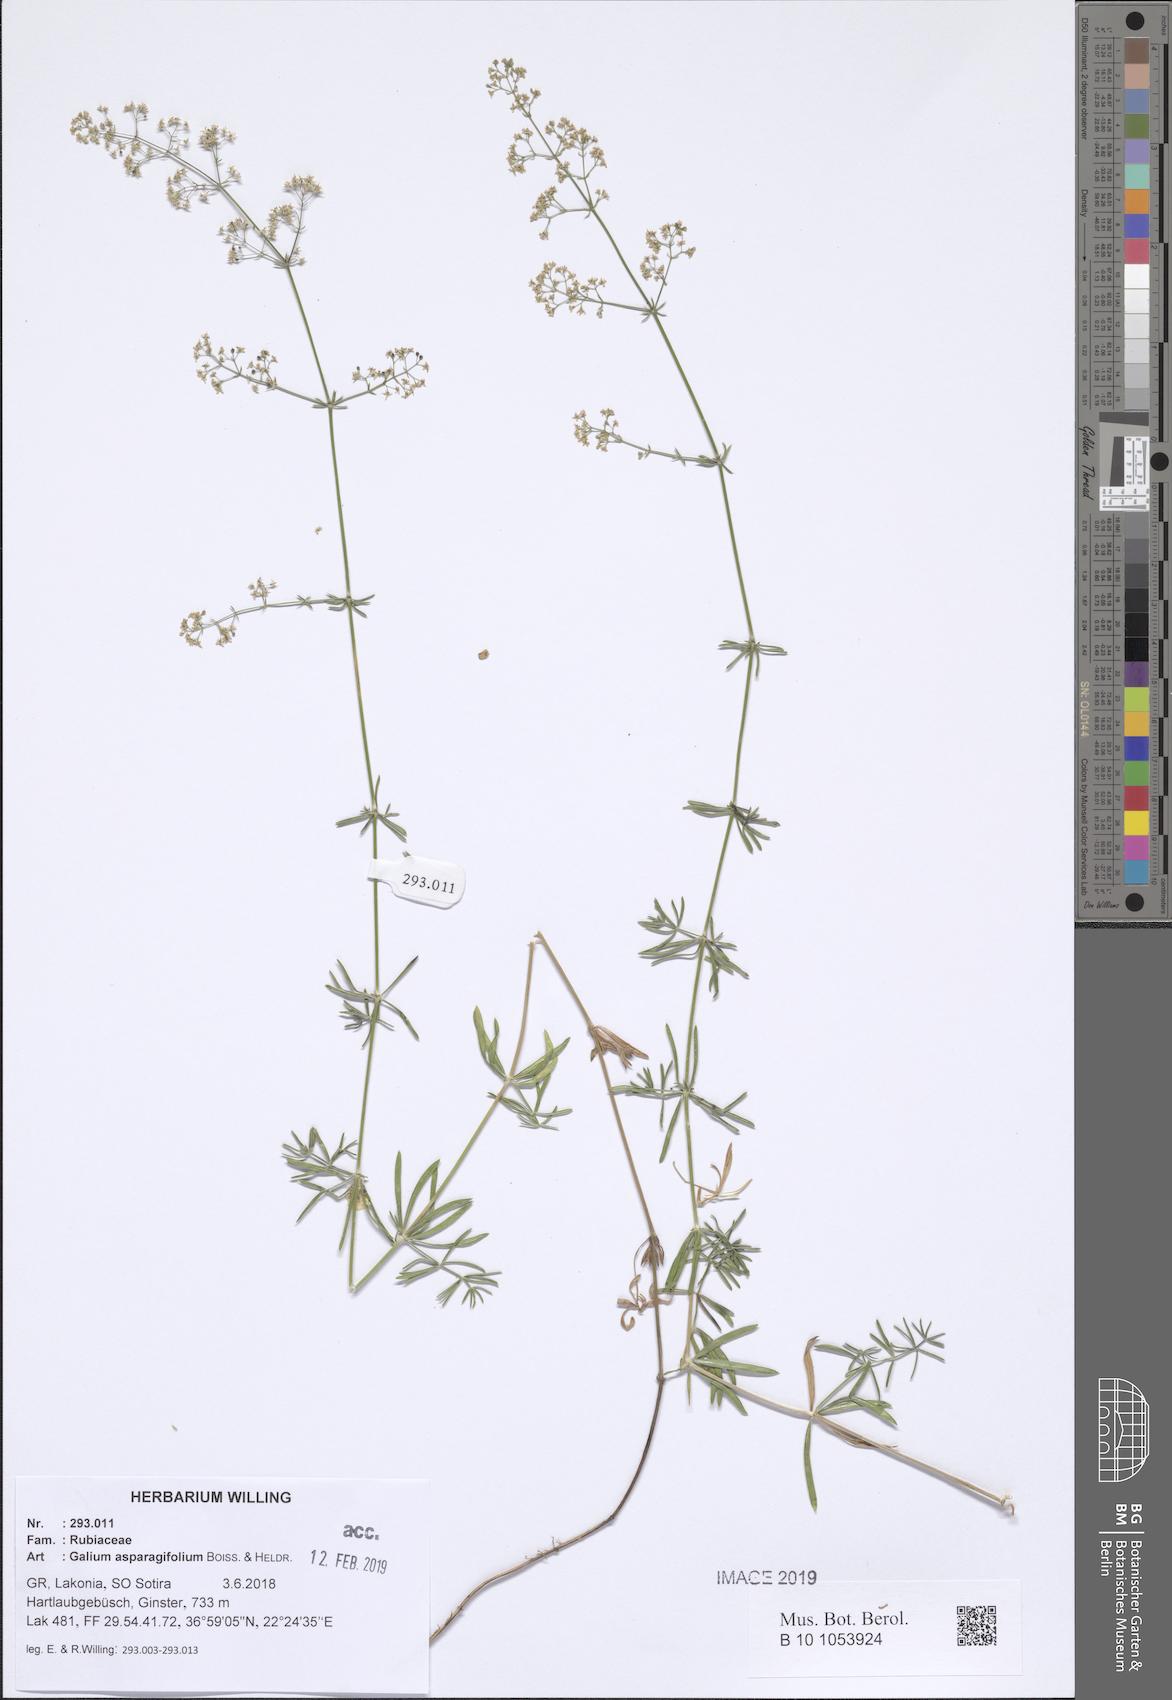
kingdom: Plantae
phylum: Tracheophyta
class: Magnoliopsida
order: Gentianales
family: Rubiaceae
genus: Galium
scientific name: Galium asparagifolium
